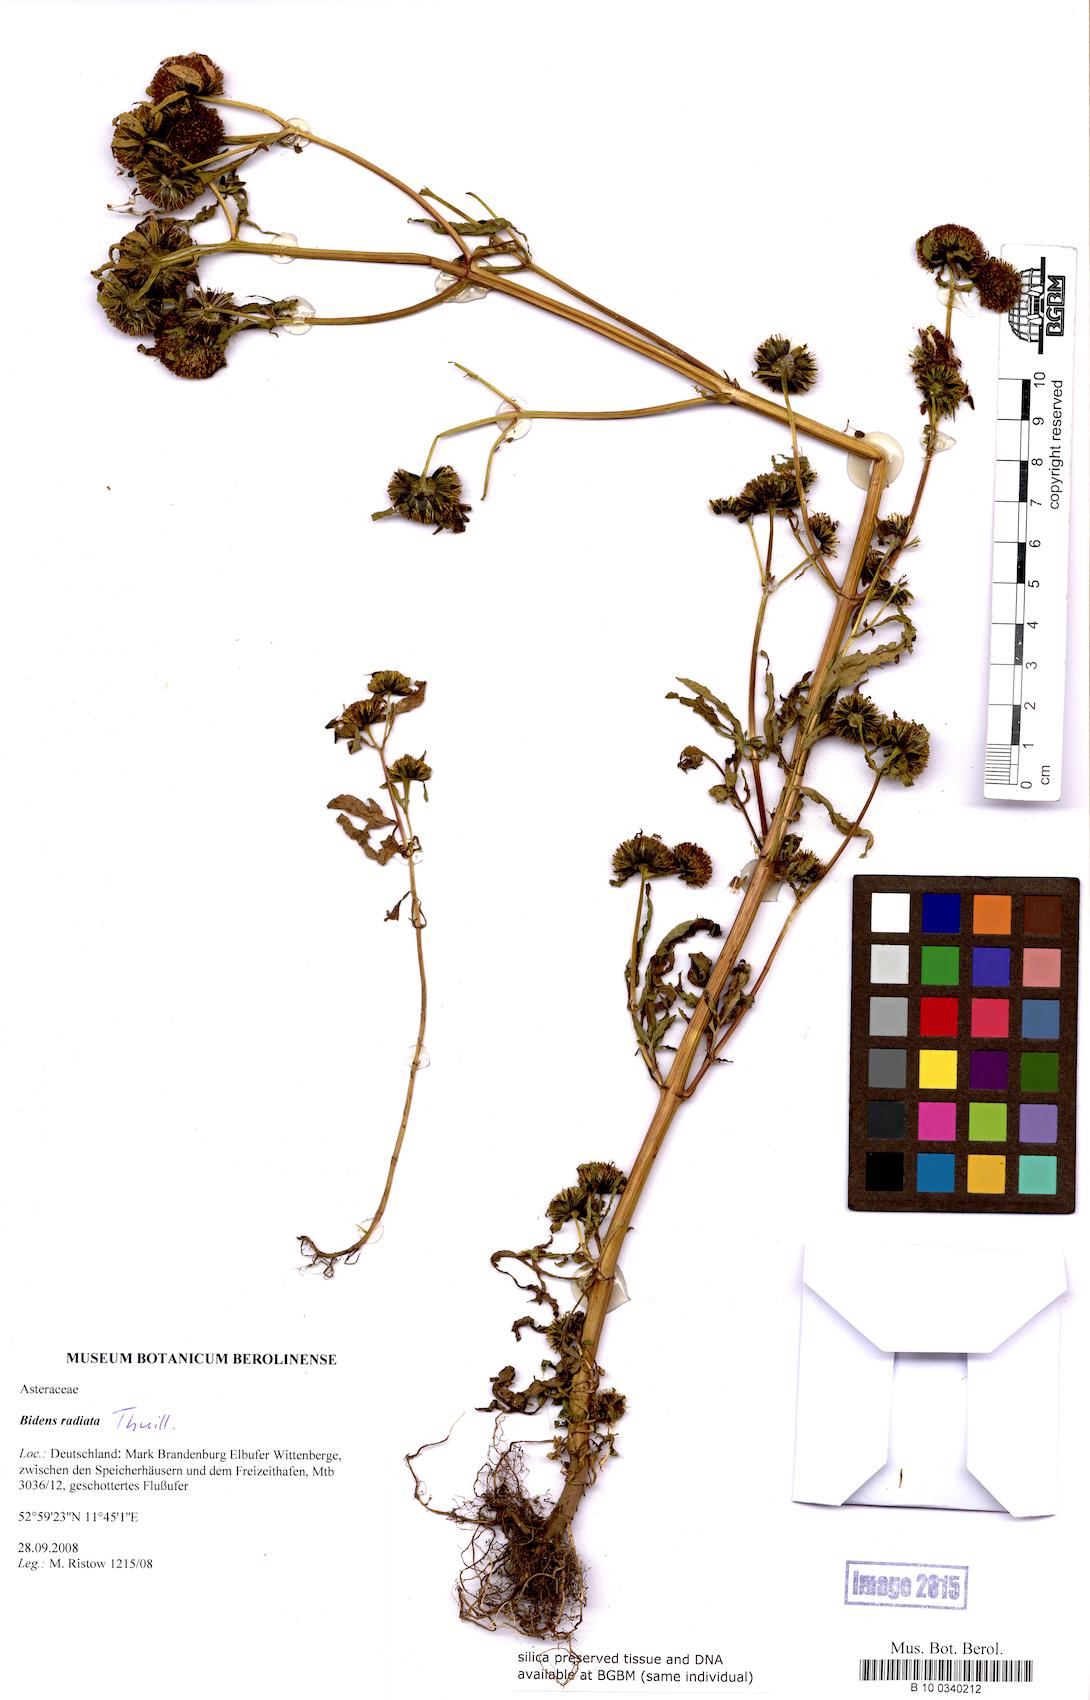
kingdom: Plantae
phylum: Tracheophyta
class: Magnoliopsida
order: Asterales
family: Asteraceae
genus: Bidens
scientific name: Bidens radiata
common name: Radiating bur-marigold
